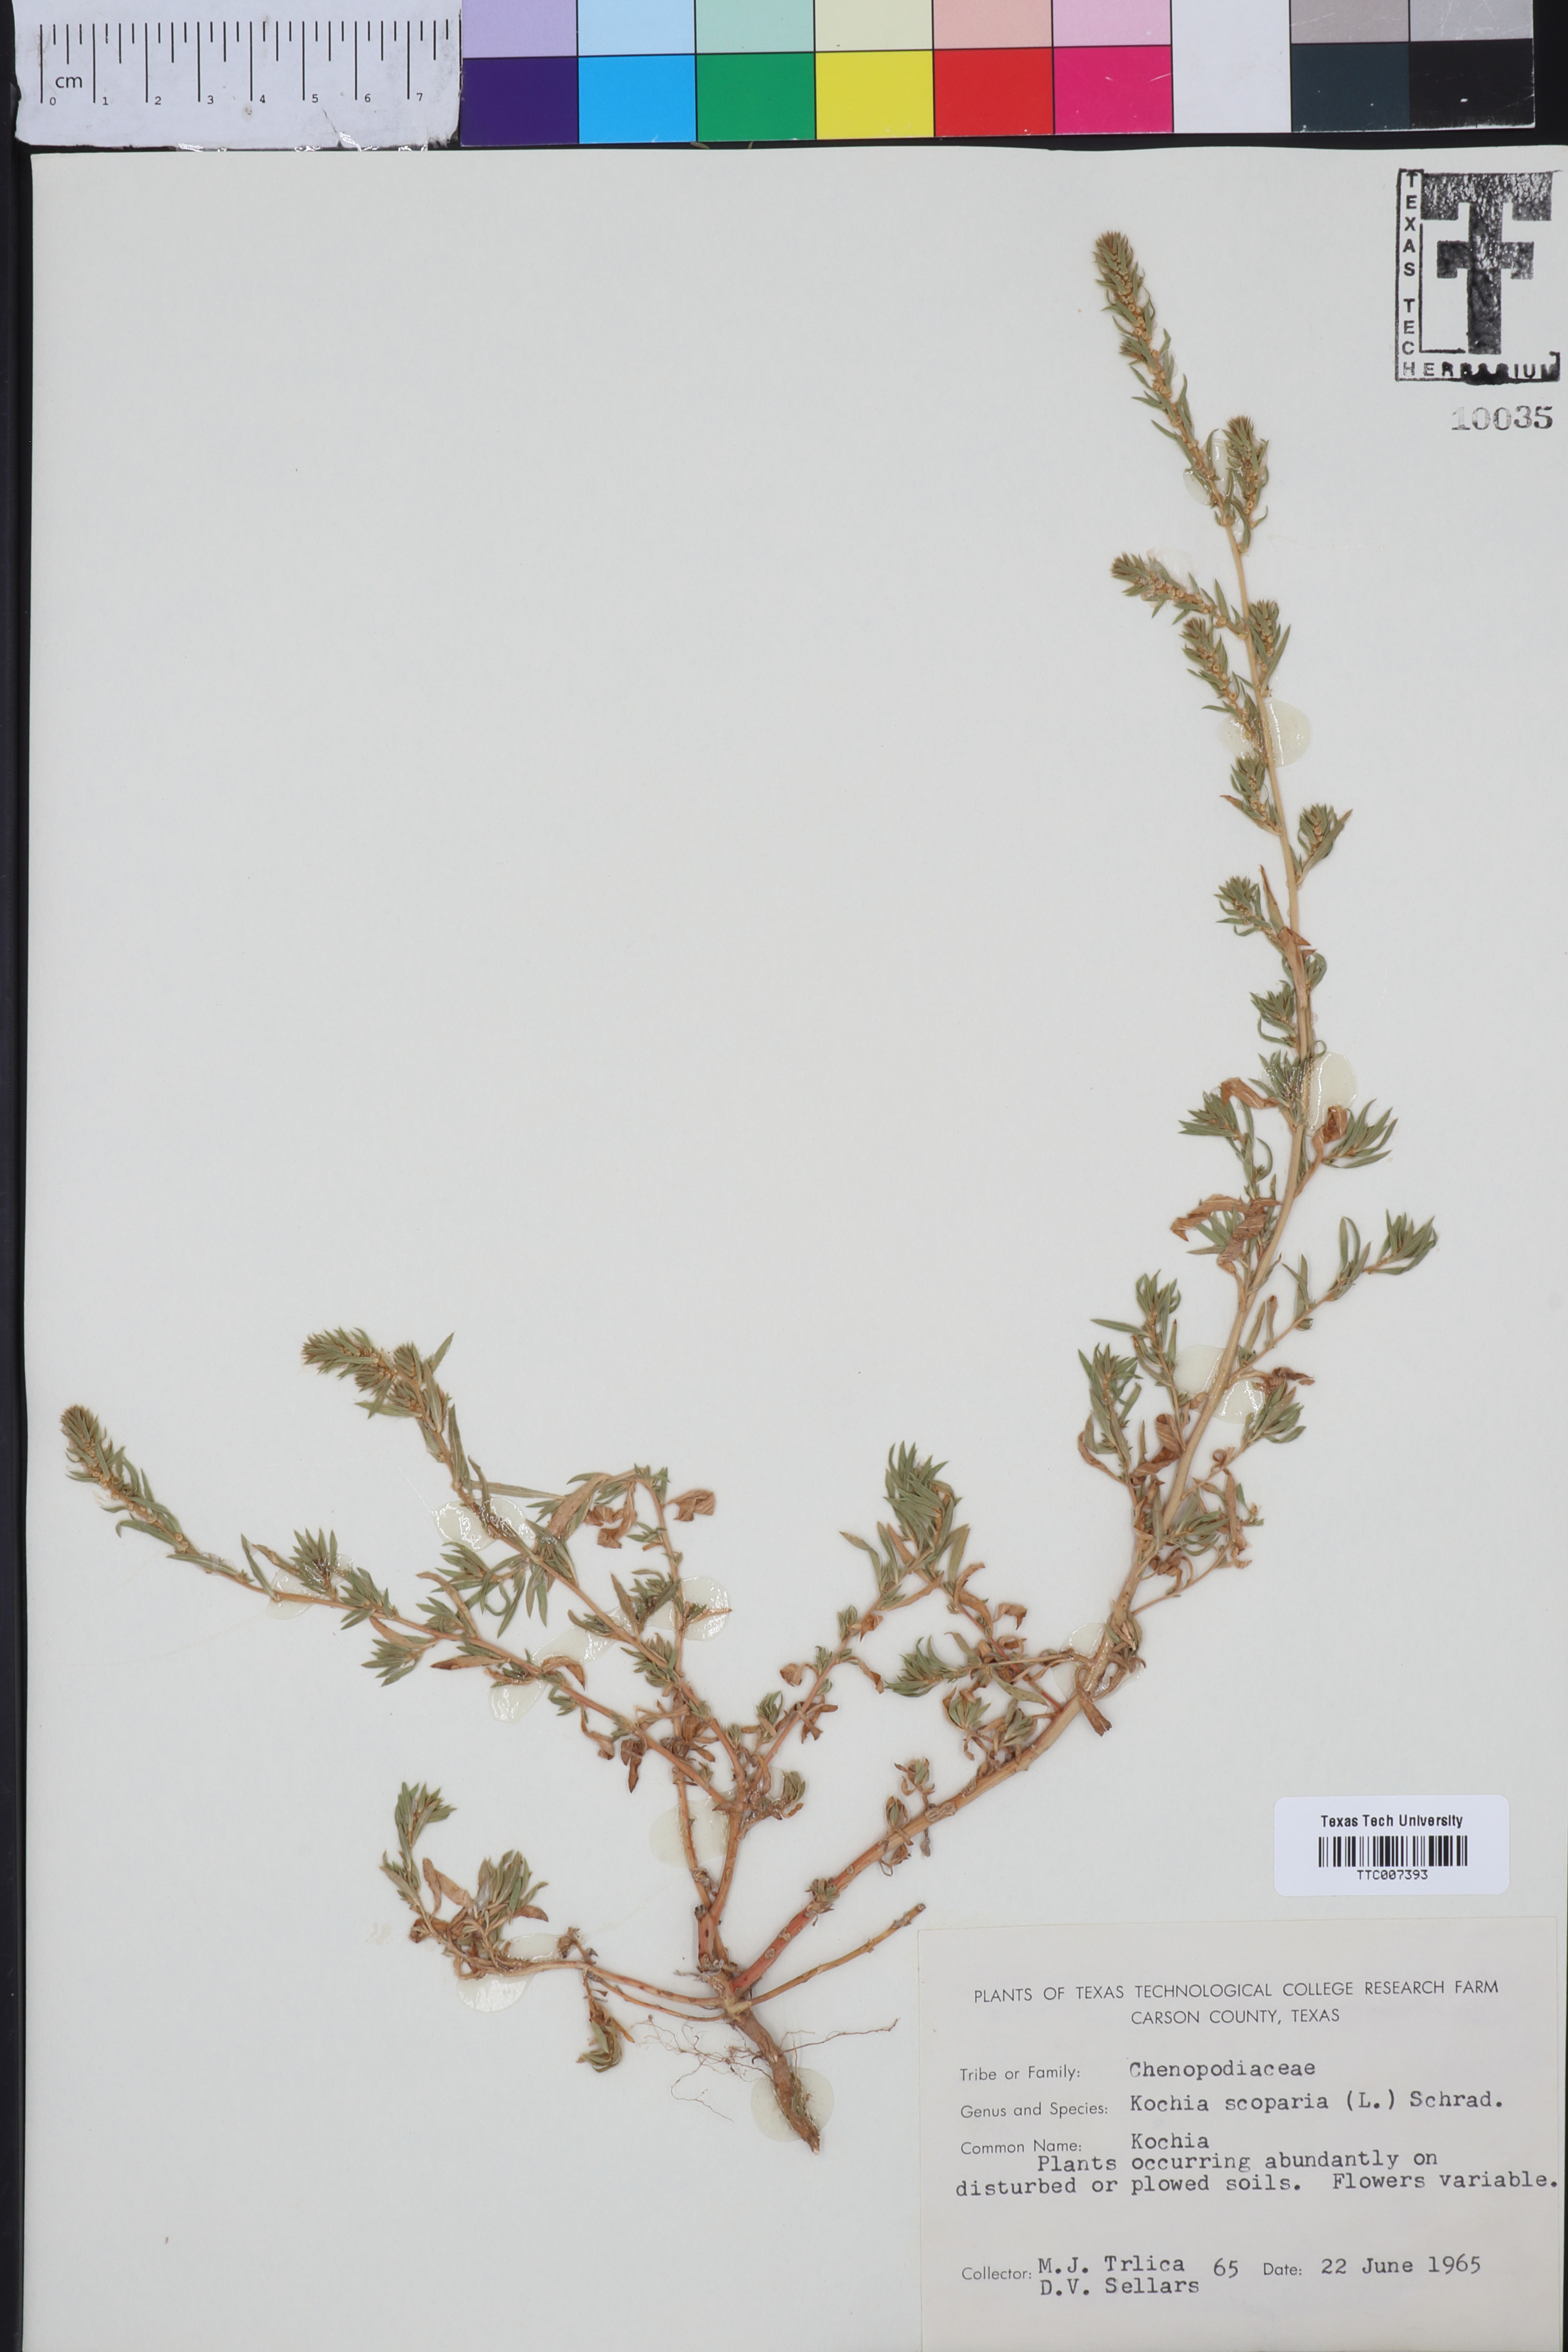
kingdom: Plantae
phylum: Tracheophyta
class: Magnoliopsida
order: Caryophyllales
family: Amaranthaceae
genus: Bassia
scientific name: Bassia scoparia
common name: Belvedere
